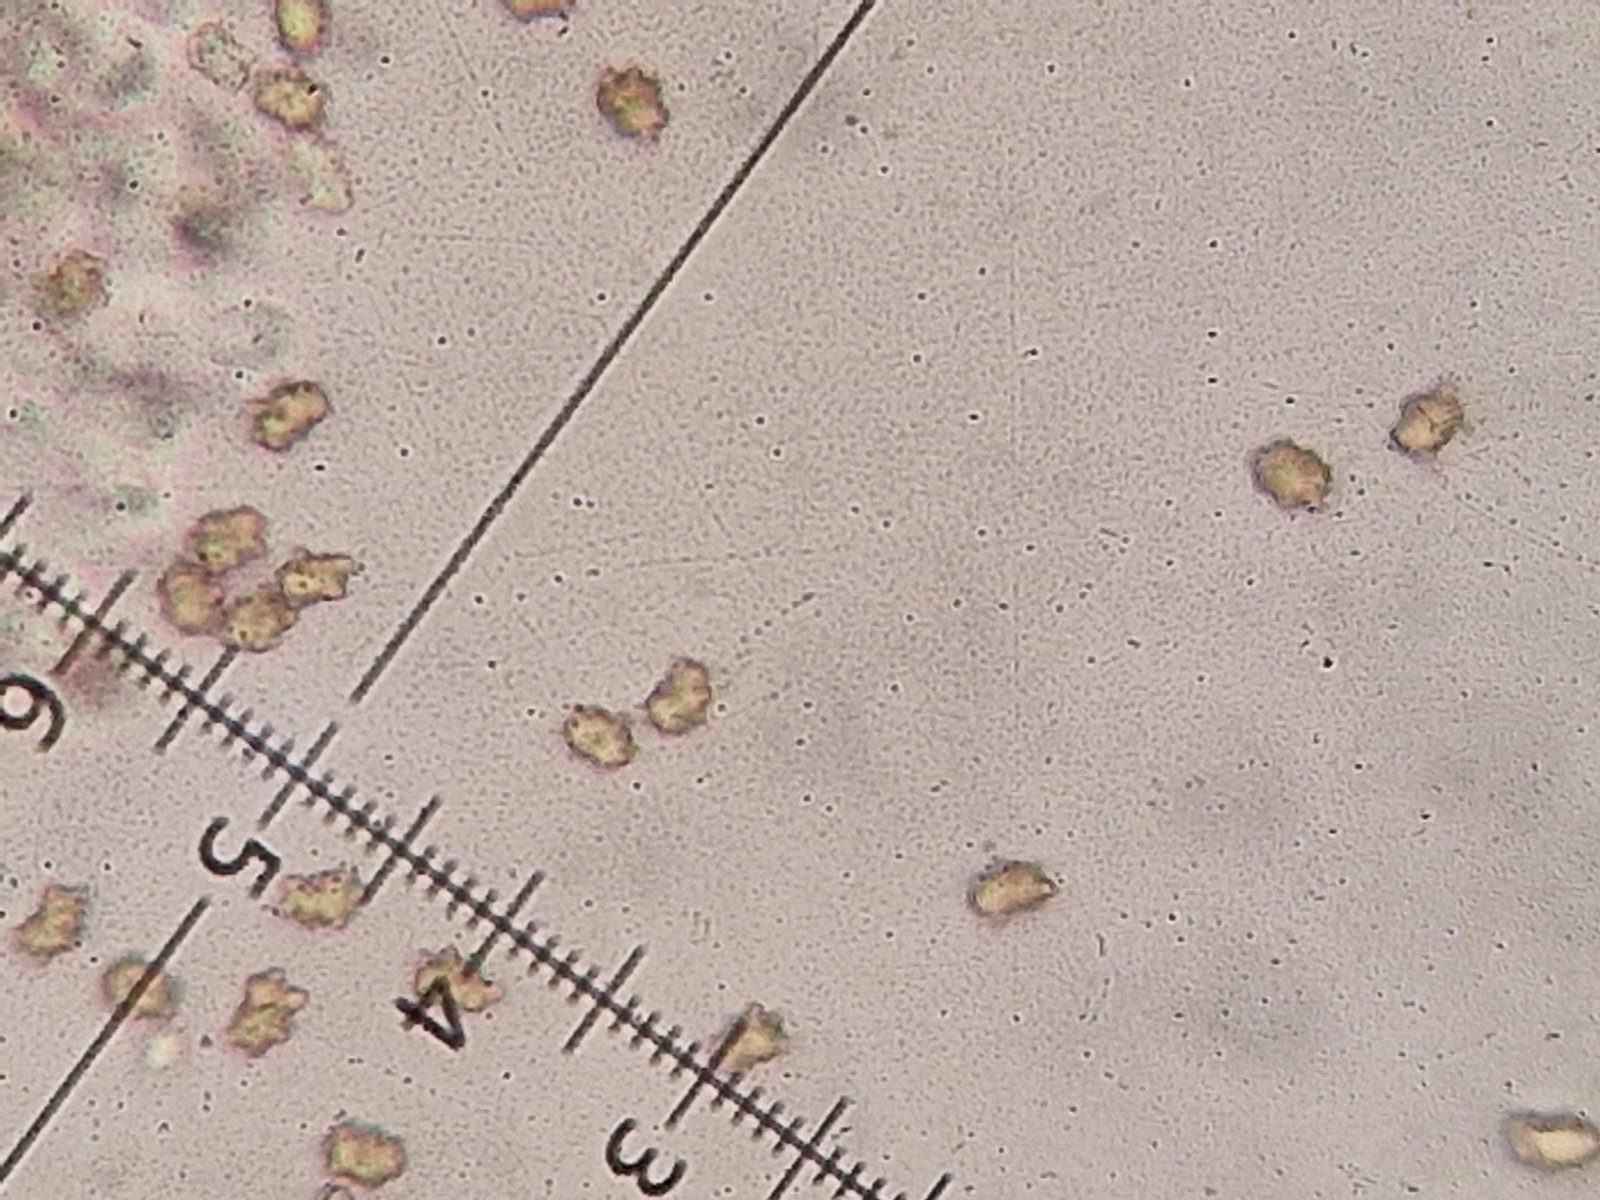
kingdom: Fungi
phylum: Basidiomycota
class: Agaricomycetes
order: Agaricales
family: Inocybaceae
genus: Inocybe
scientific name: Inocybe
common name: trævlhat
